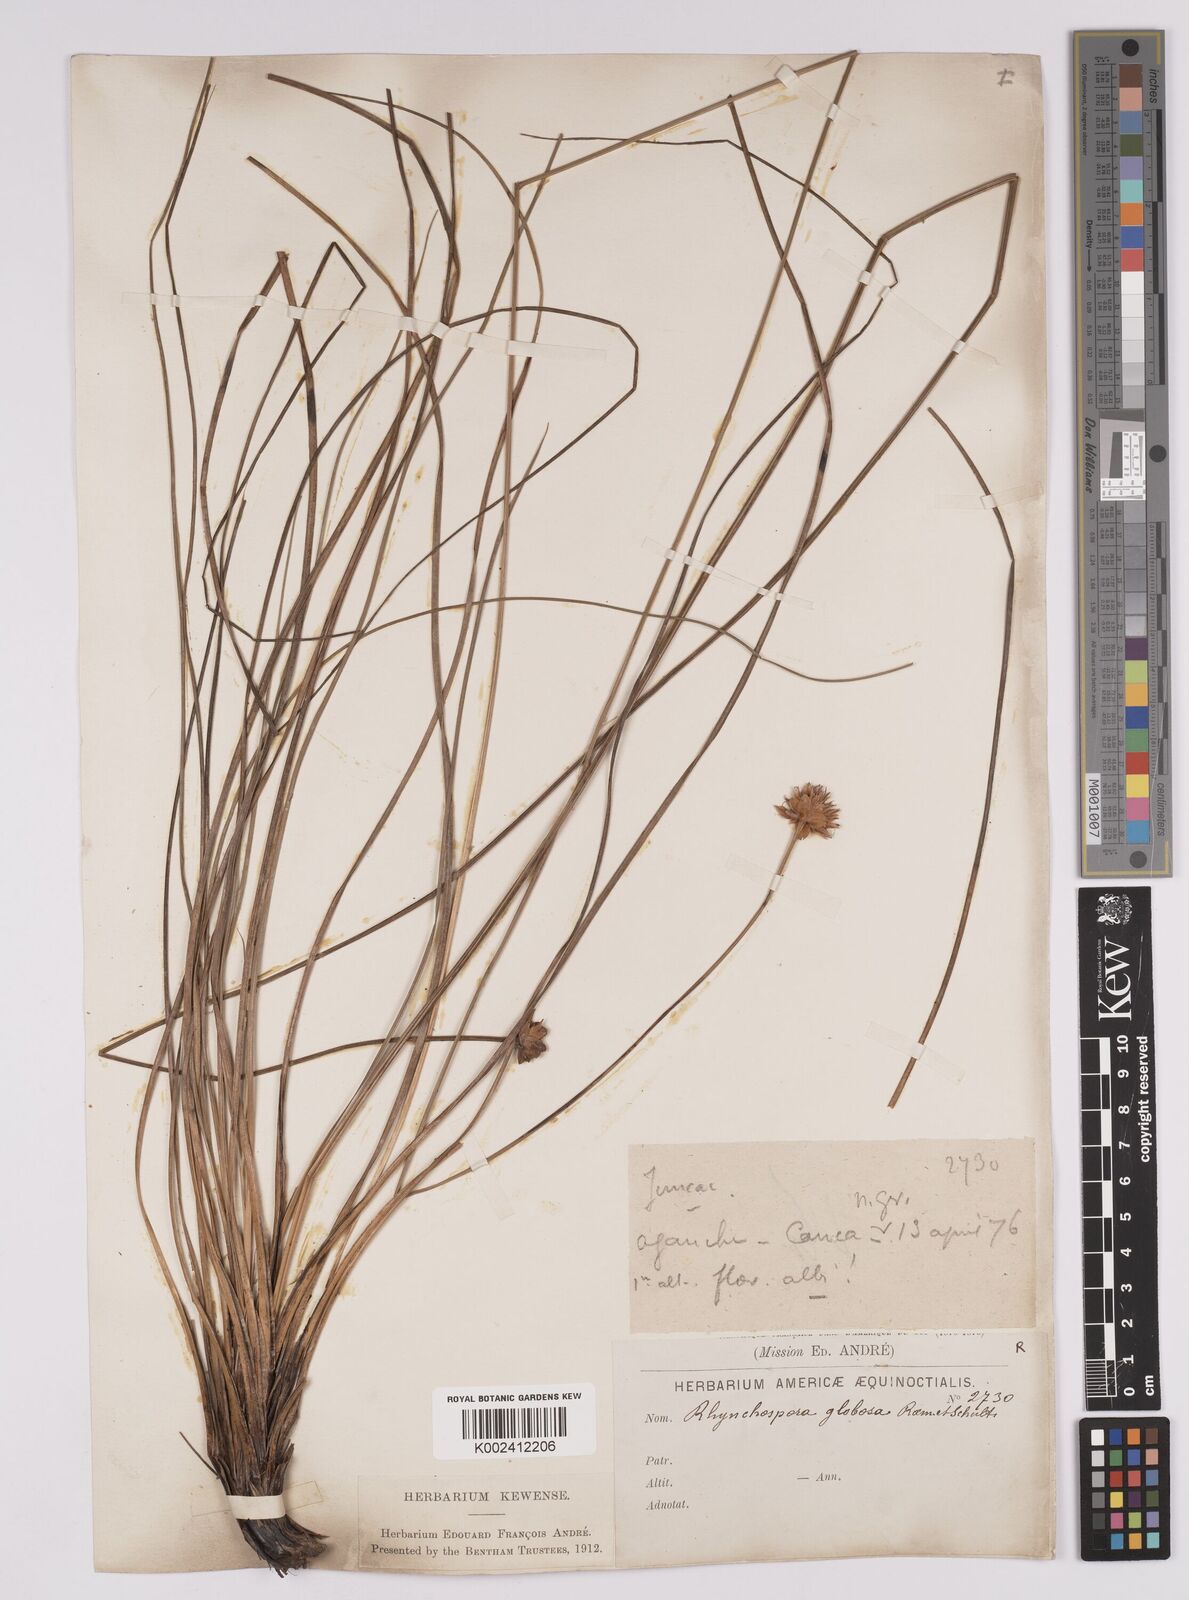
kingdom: Plantae
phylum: Tracheophyta
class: Liliopsida
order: Poales
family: Cyperaceae
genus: Rhynchospora
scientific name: Rhynchospora globosa
